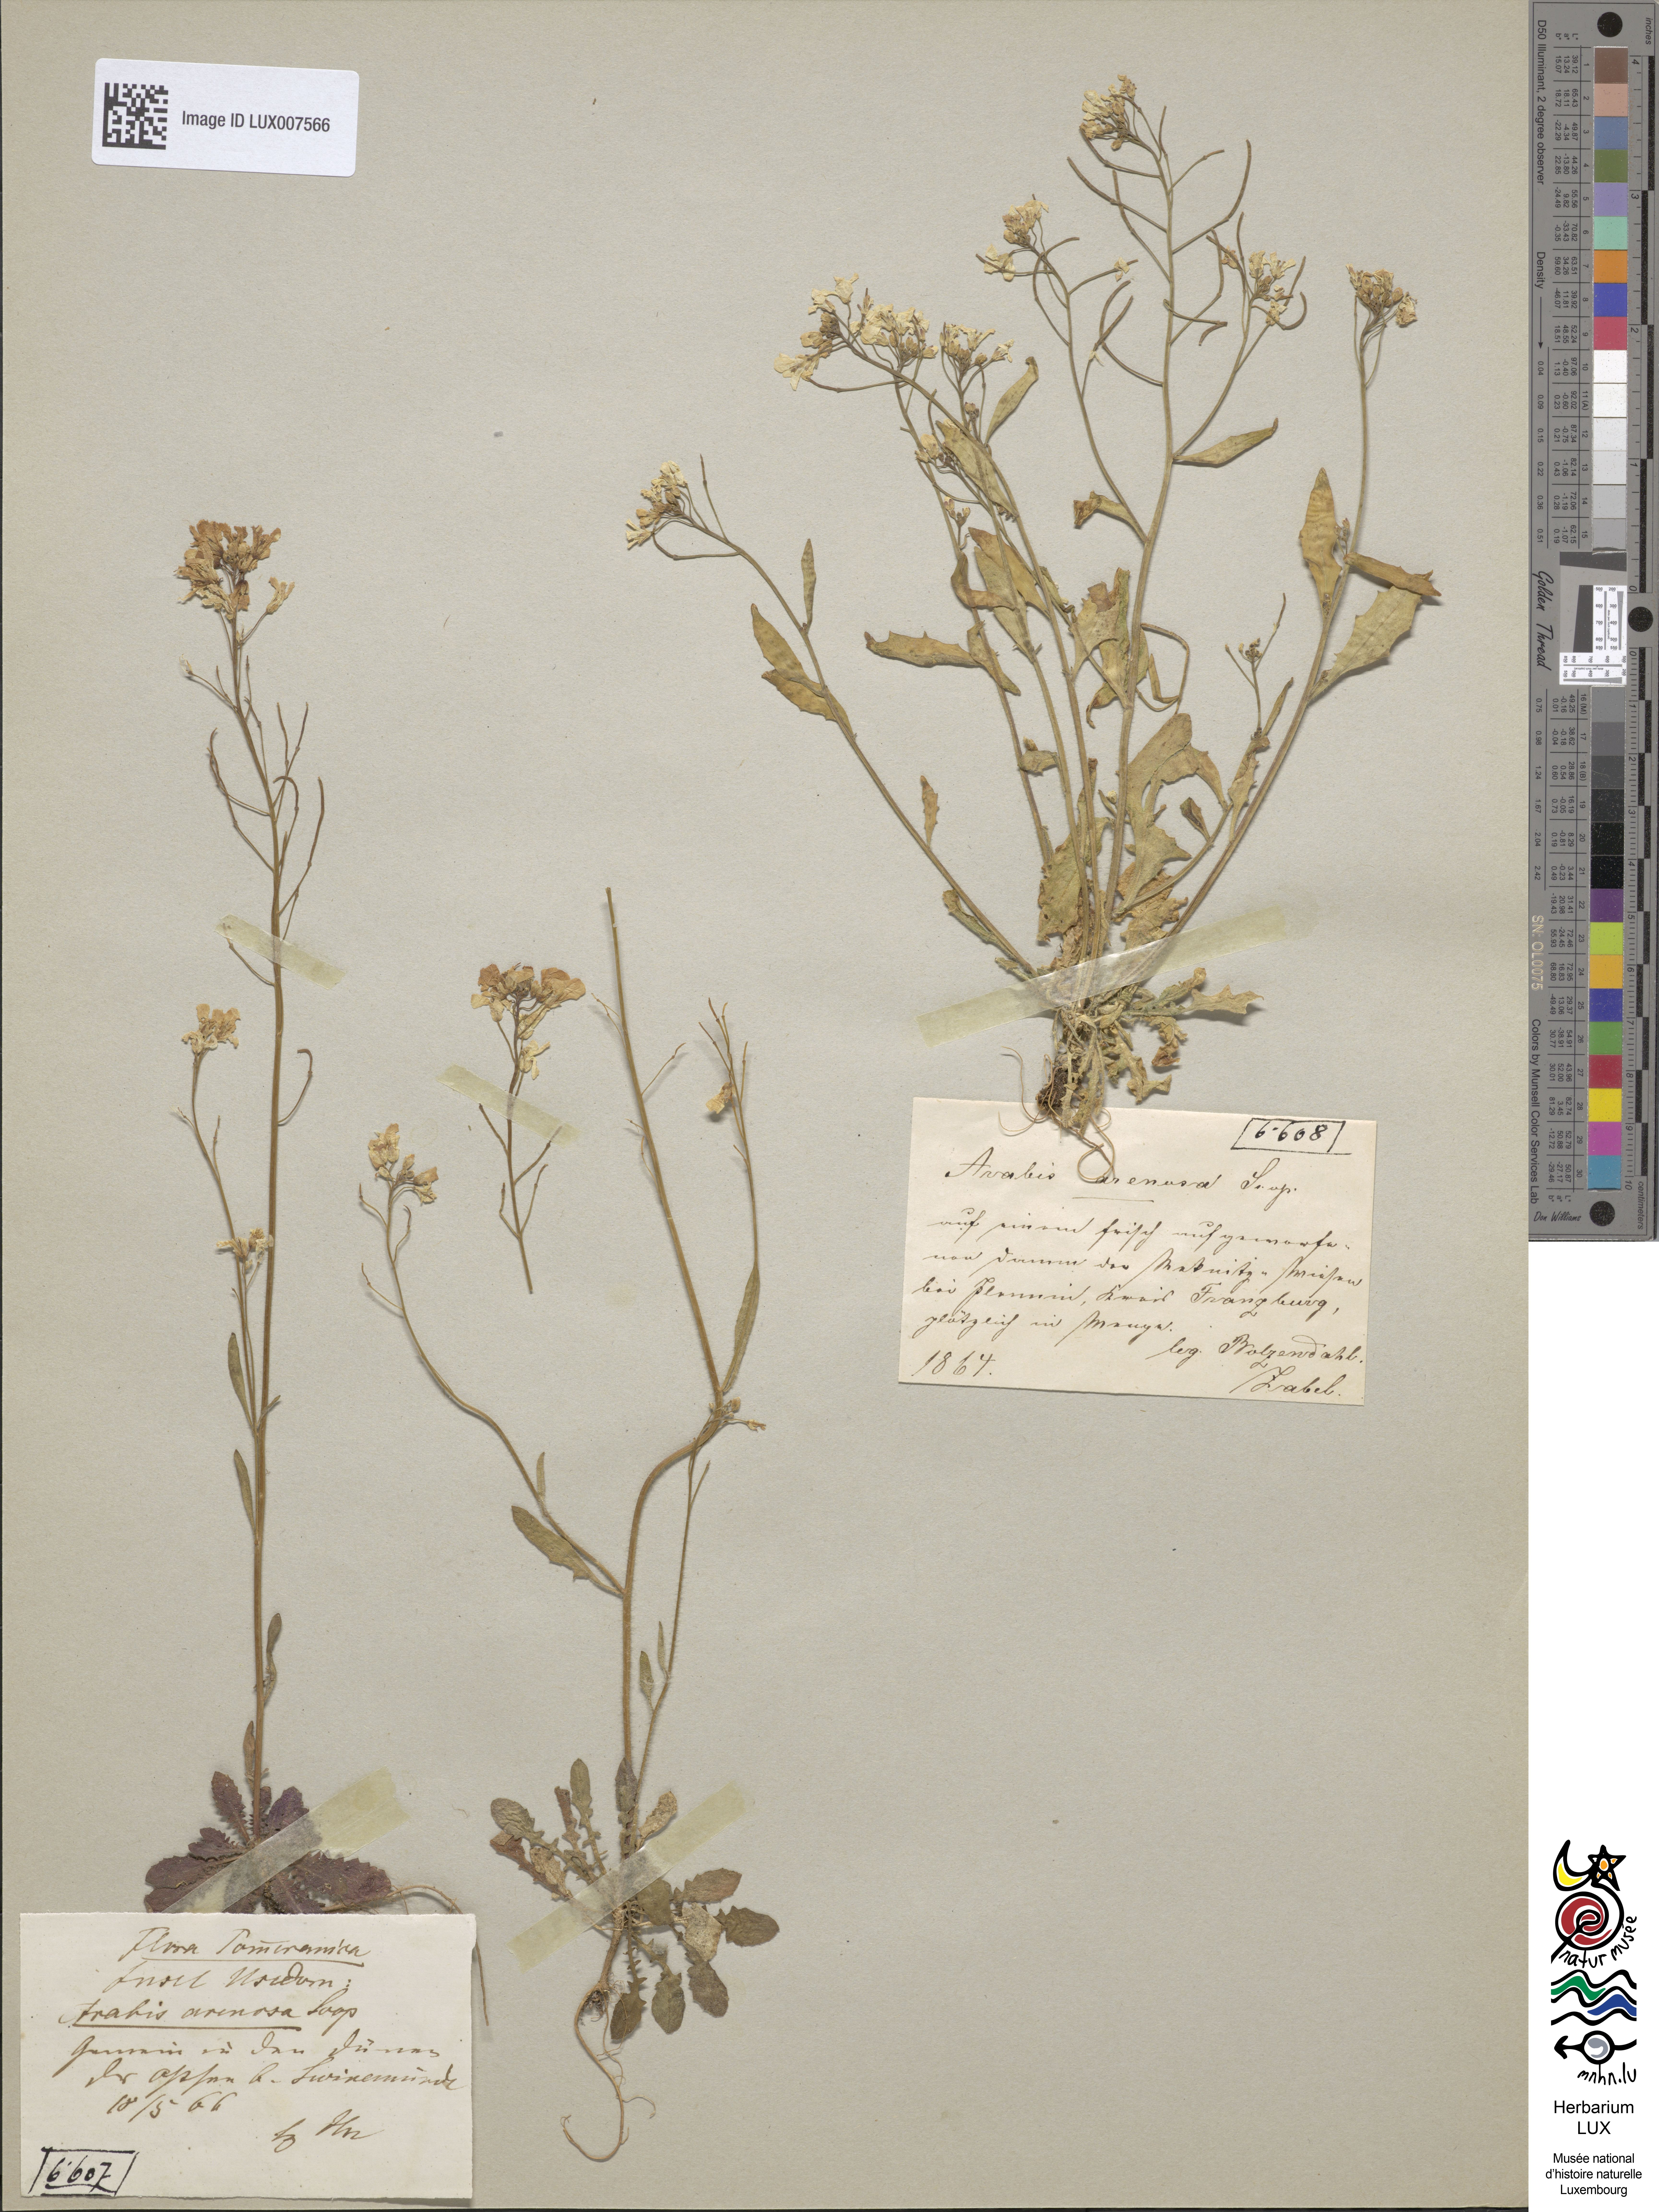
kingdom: Plantae
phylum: Tracheophyta
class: Magnoliopsida
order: Brassicales
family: Brassicaceae
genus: Arabidopsis
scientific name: Arabidopsis arenosa
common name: Sand rock-cress
